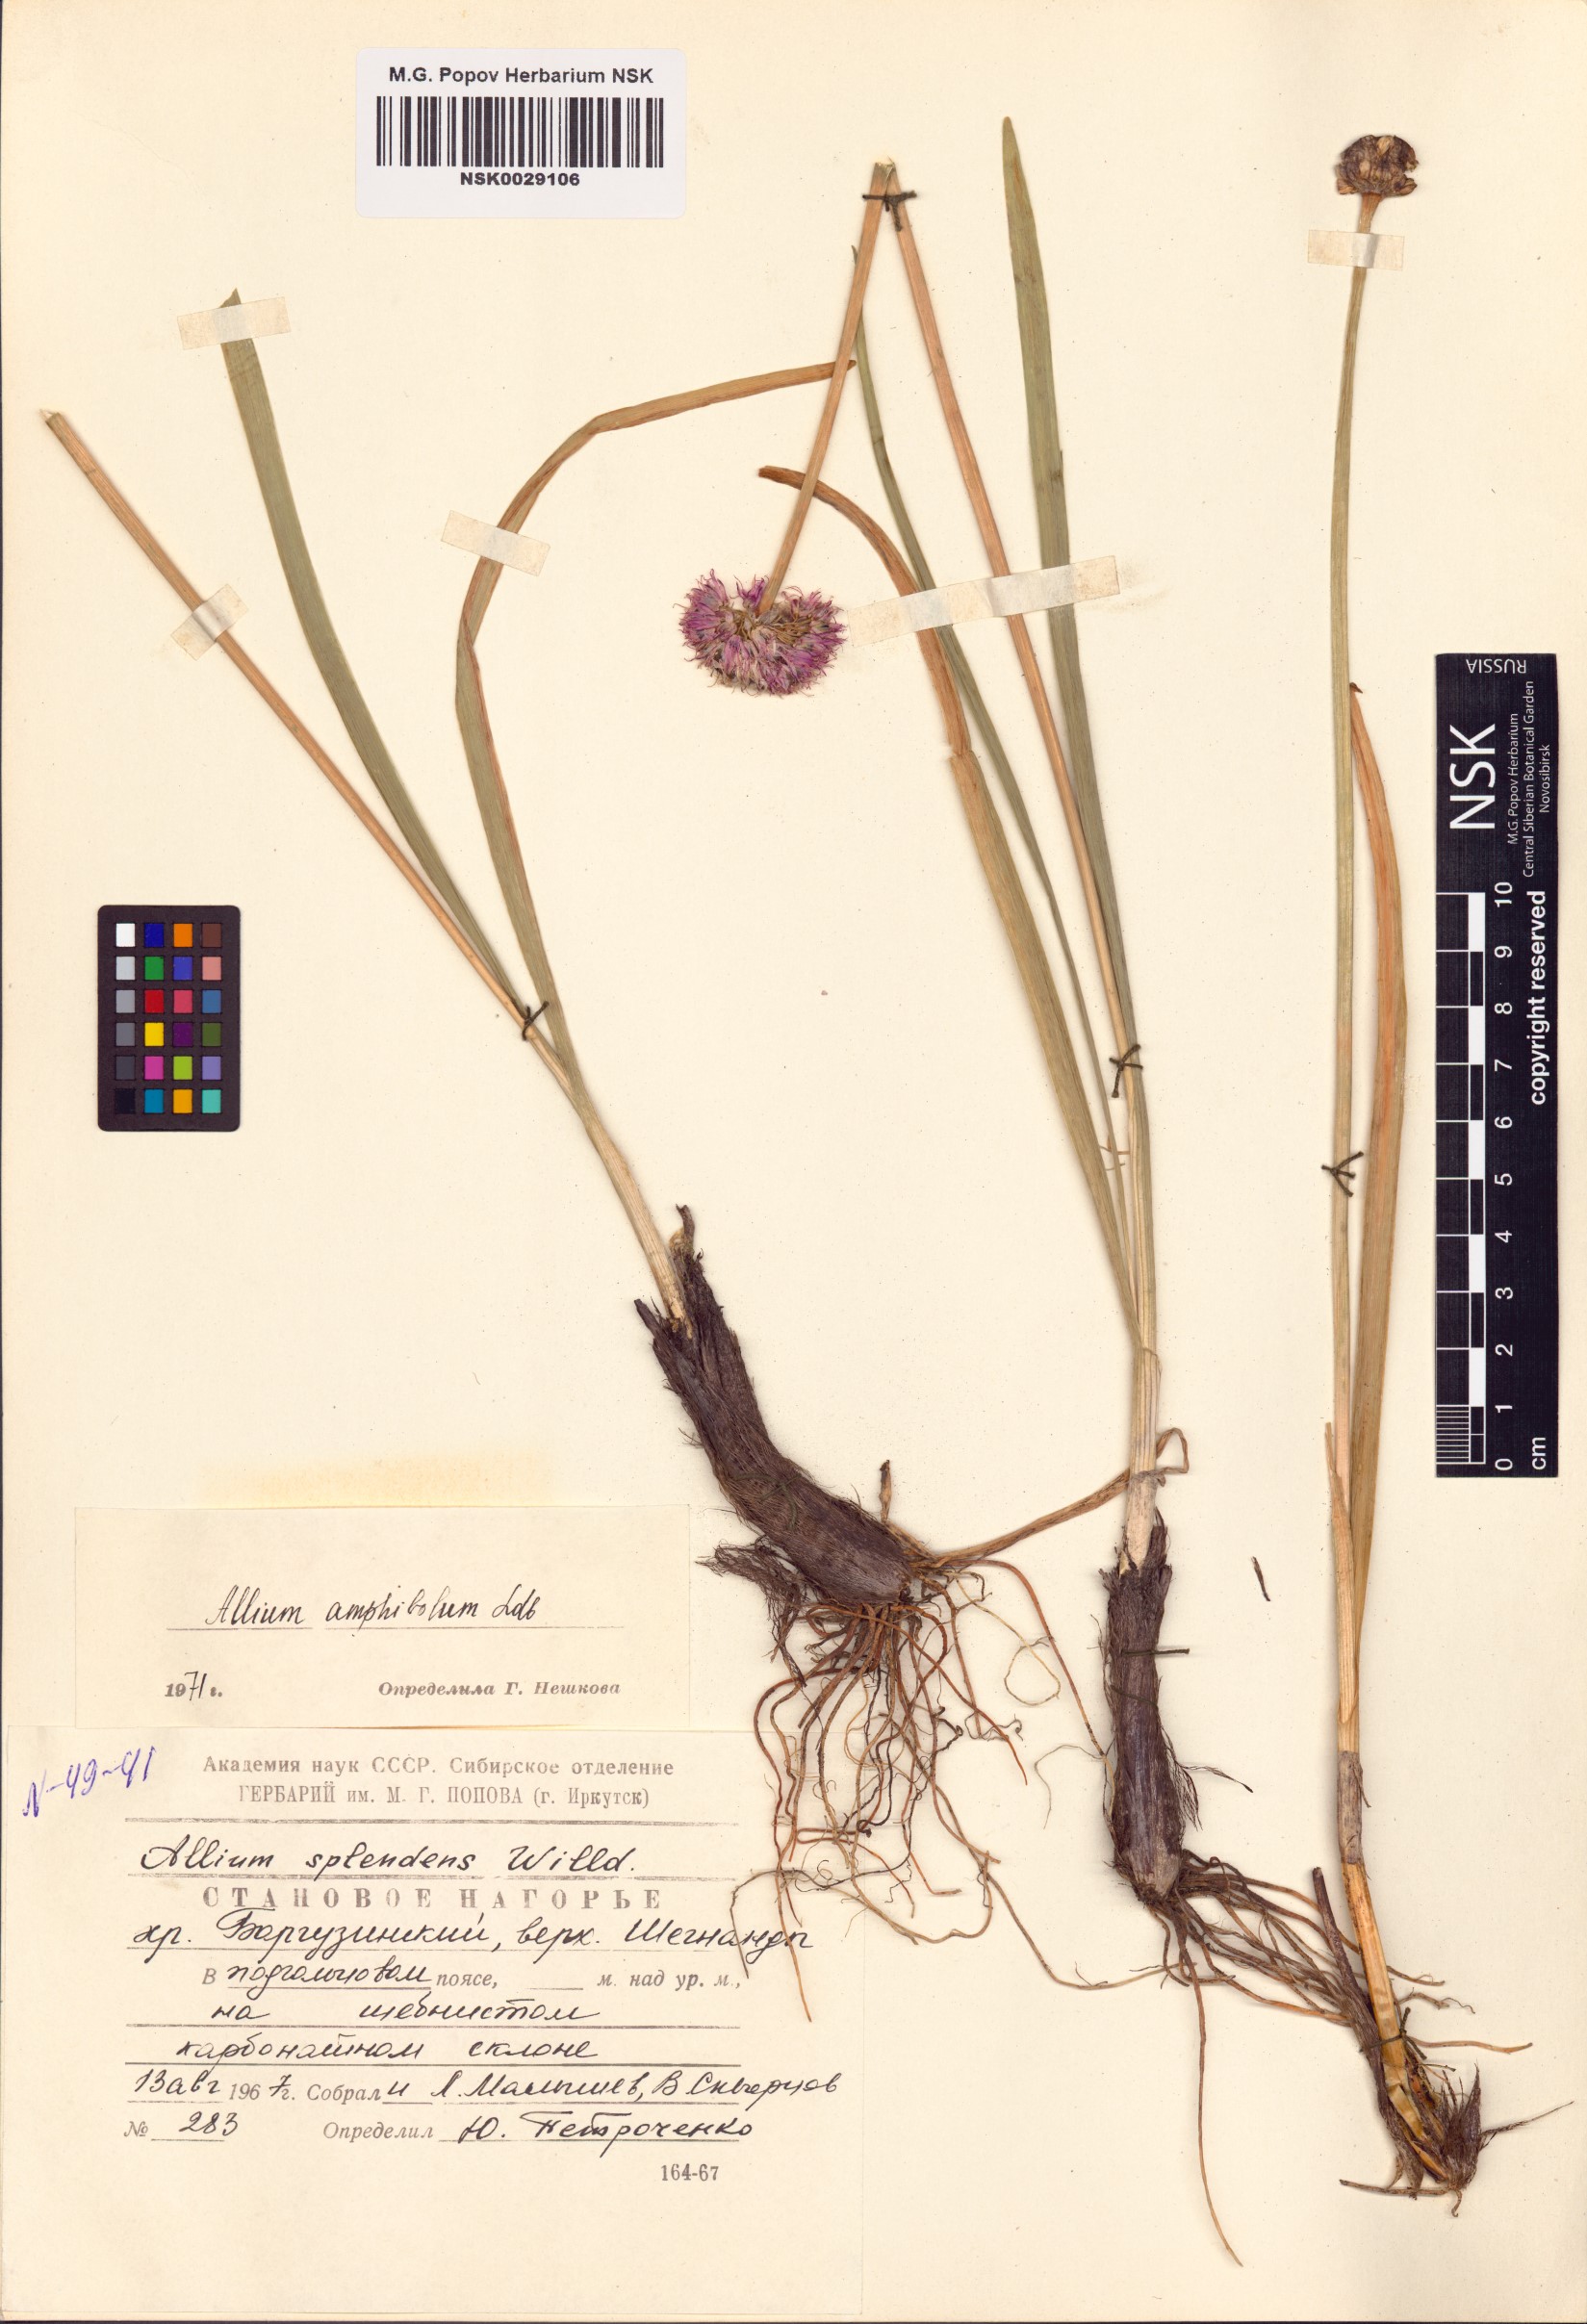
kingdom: Plantae
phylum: Tracheophyta
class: Liliopsida
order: Asparagales
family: Amaryllidaceae
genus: Allium
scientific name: Allium amphibolum
